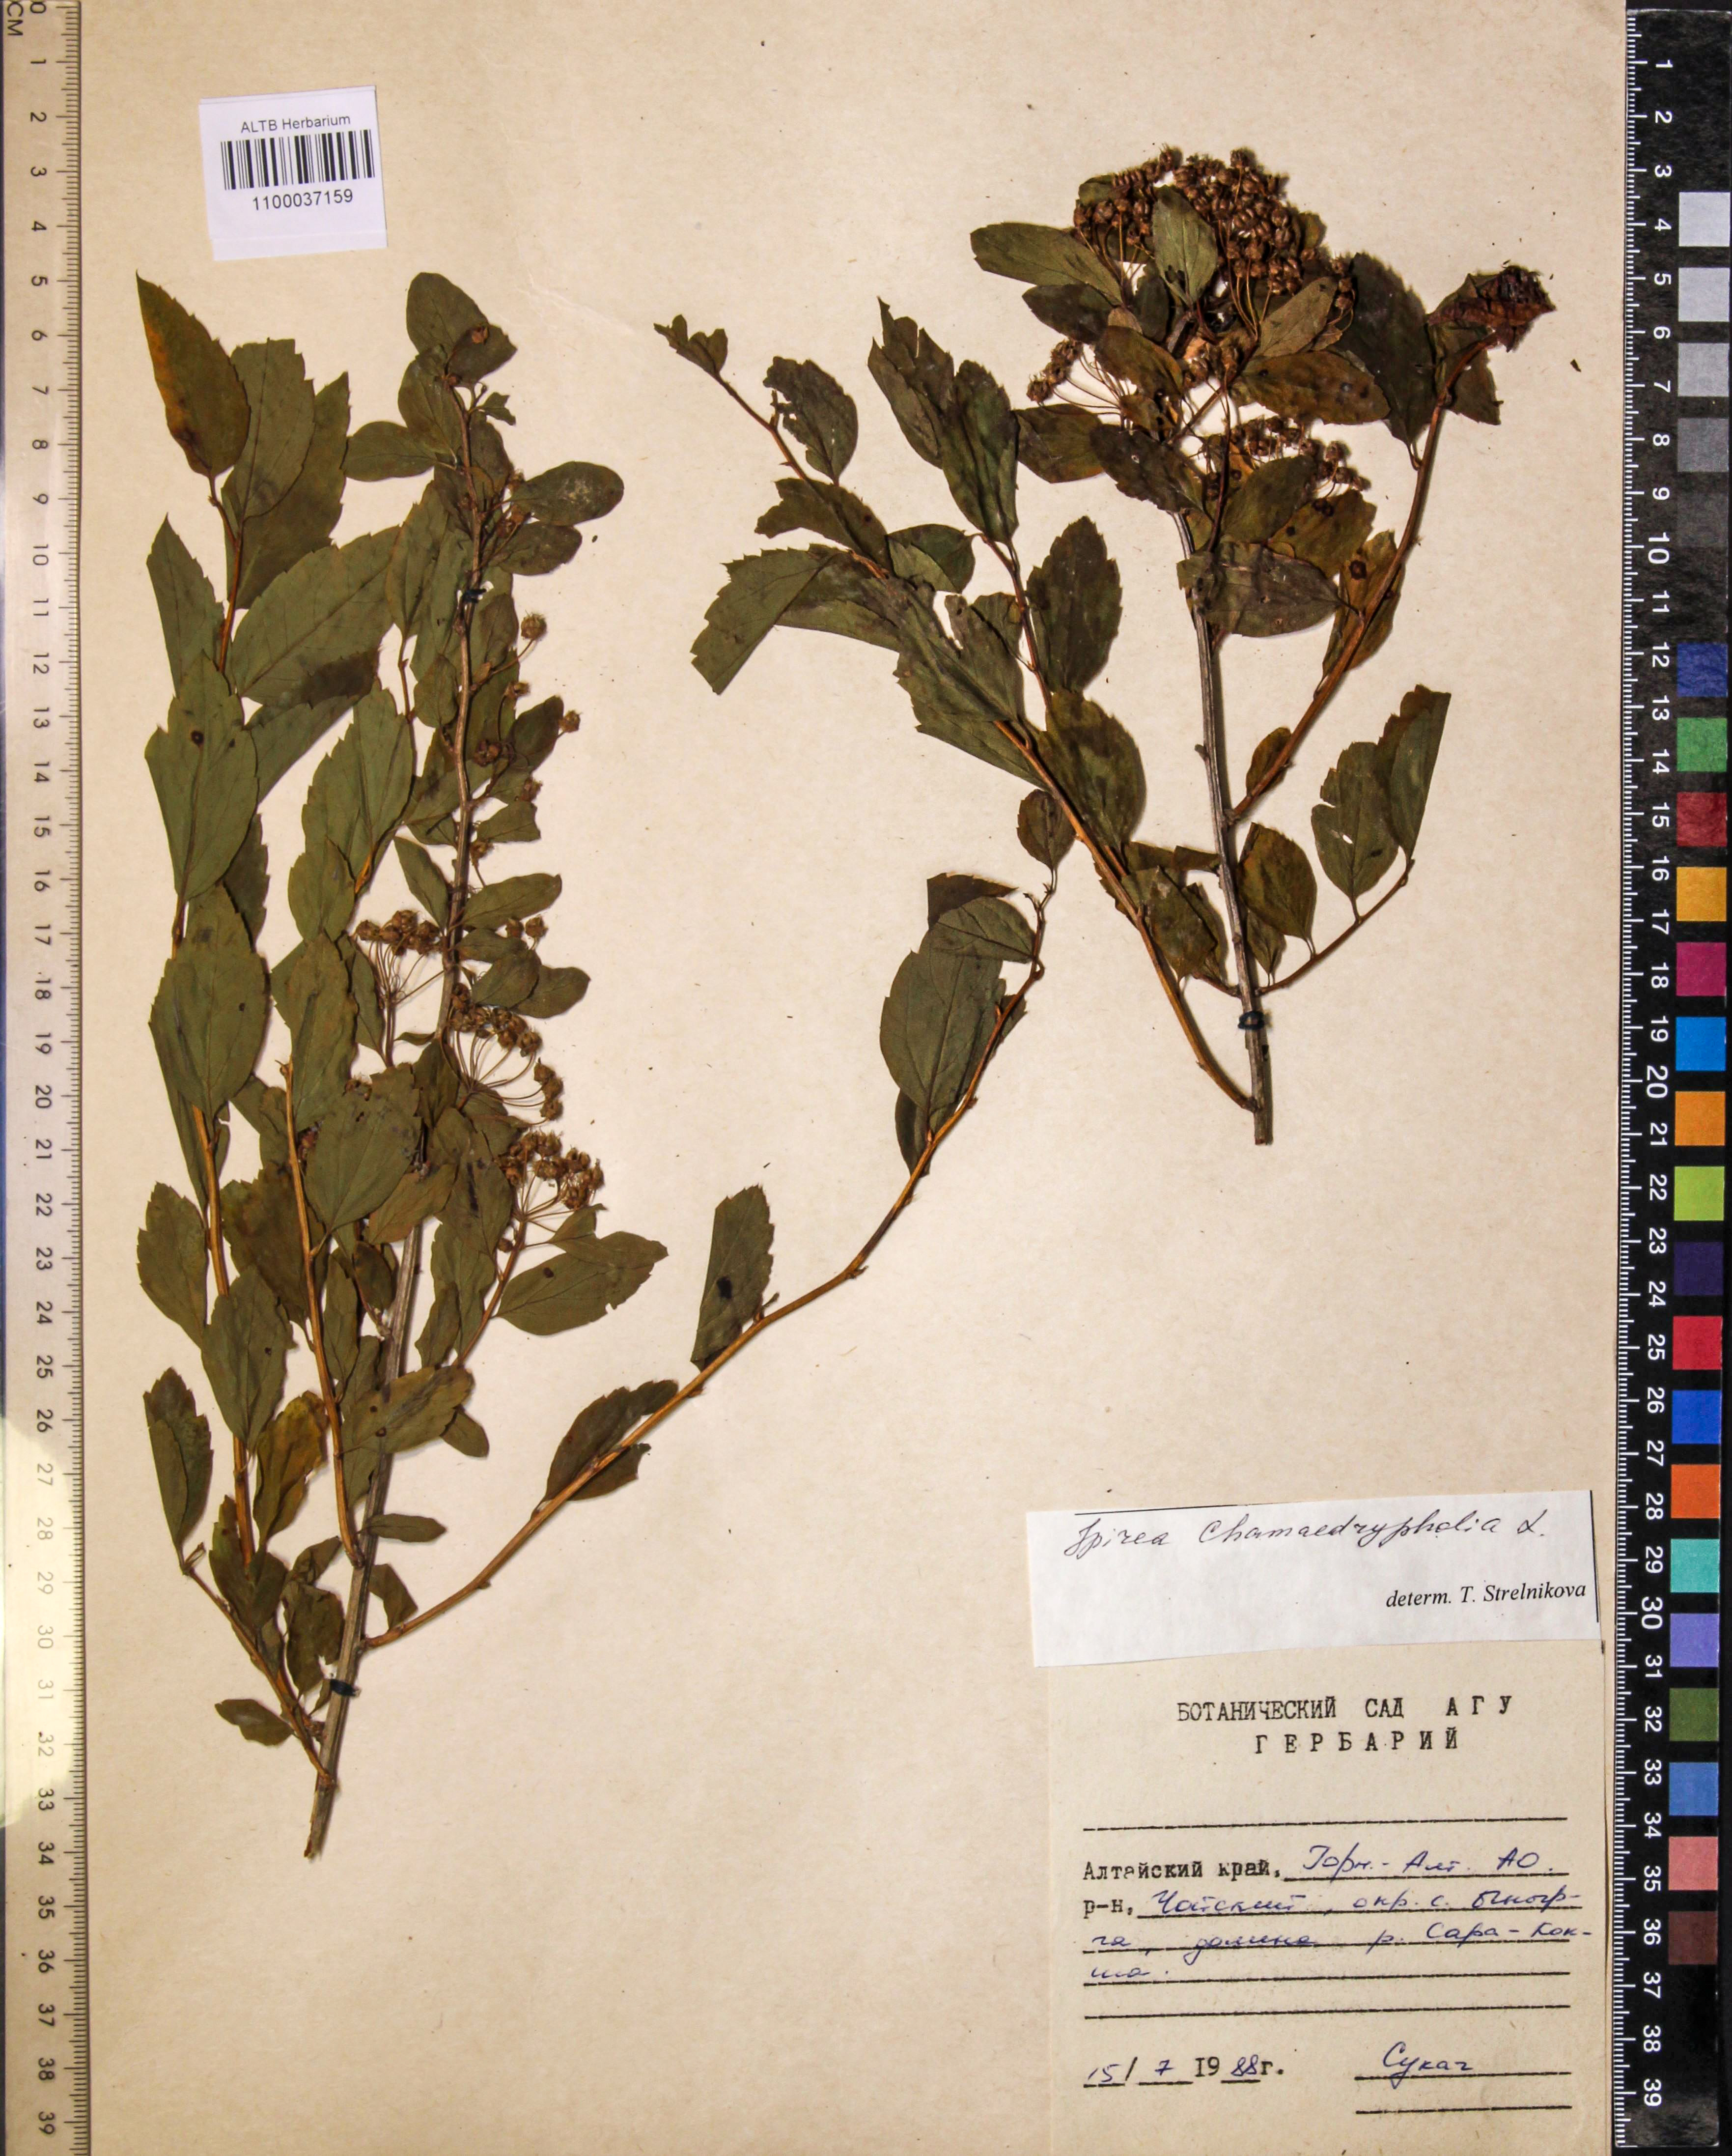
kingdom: Plantae
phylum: Tracheophyta
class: Magnoliopsida
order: Rosales
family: Rosaceae
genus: Spiraea
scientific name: Spiraea chamaedryfolia
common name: Elm-leaved spiraea
